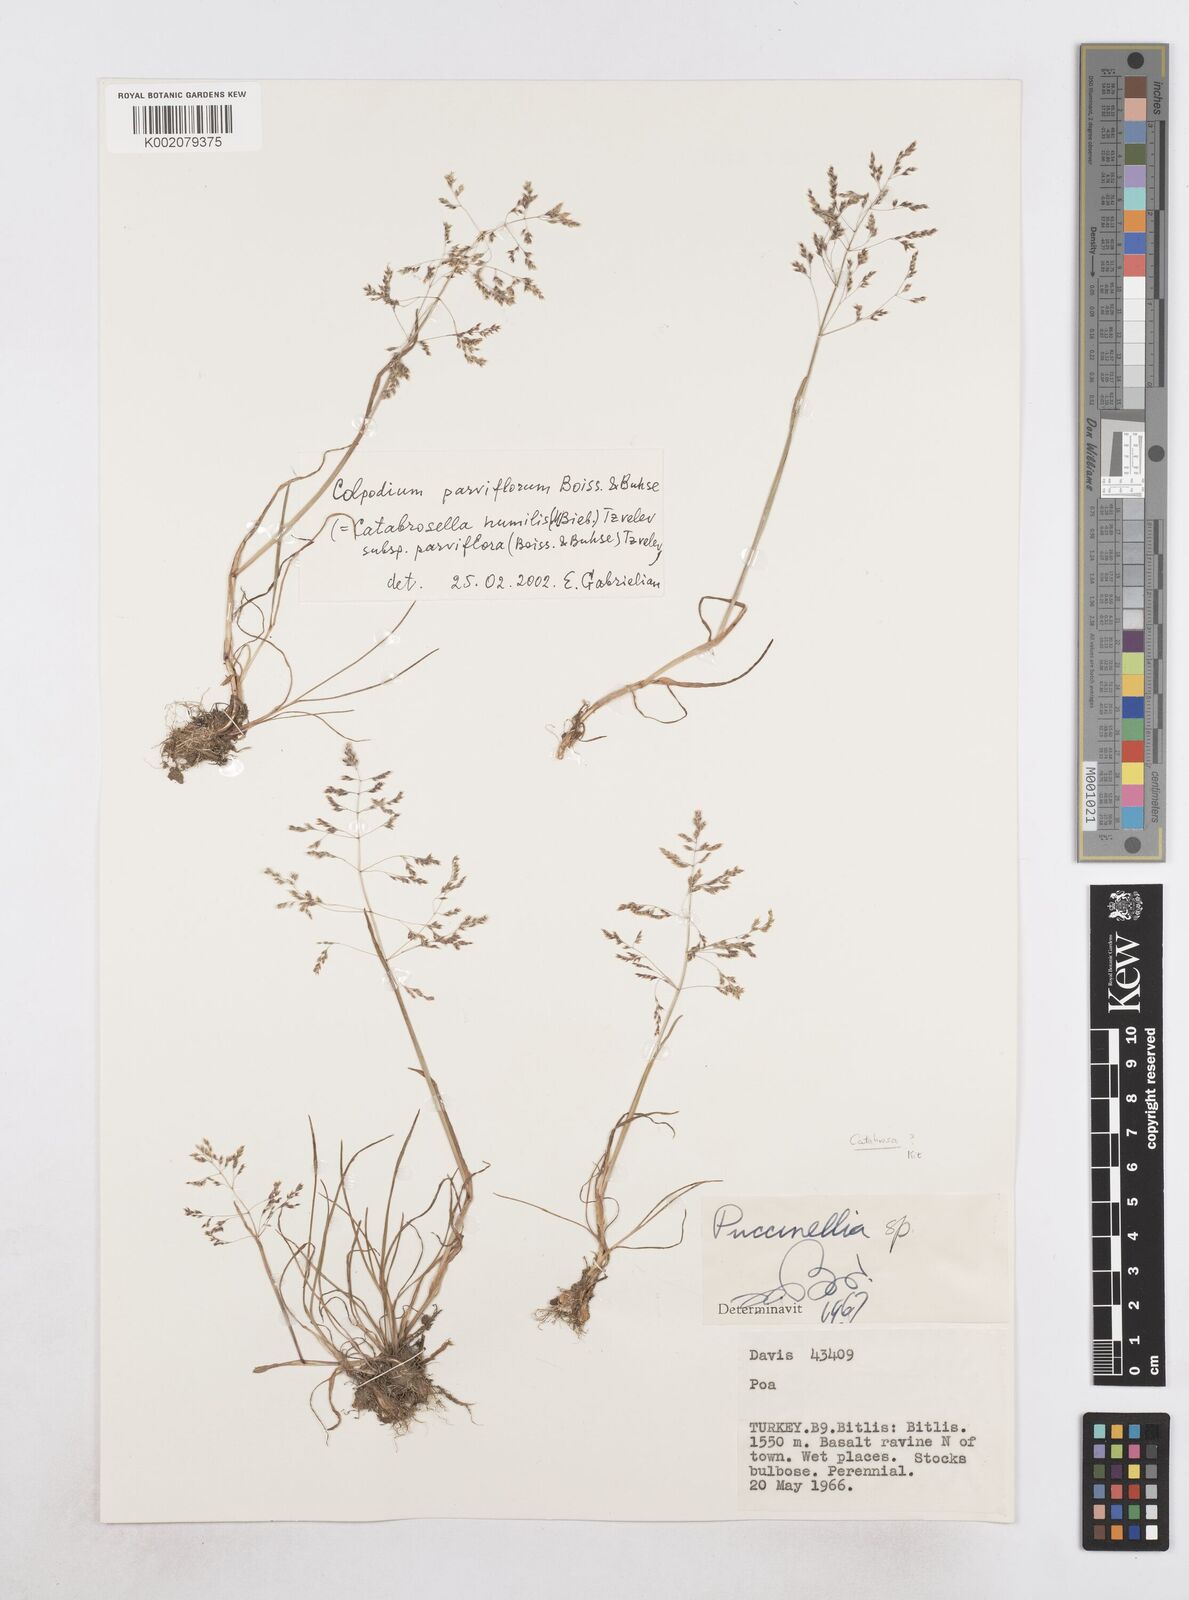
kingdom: Plantae
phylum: Tracheophyta
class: Liliopsida
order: Poales
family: Poaceae
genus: Catabrosella
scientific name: Catabrosella humilis
